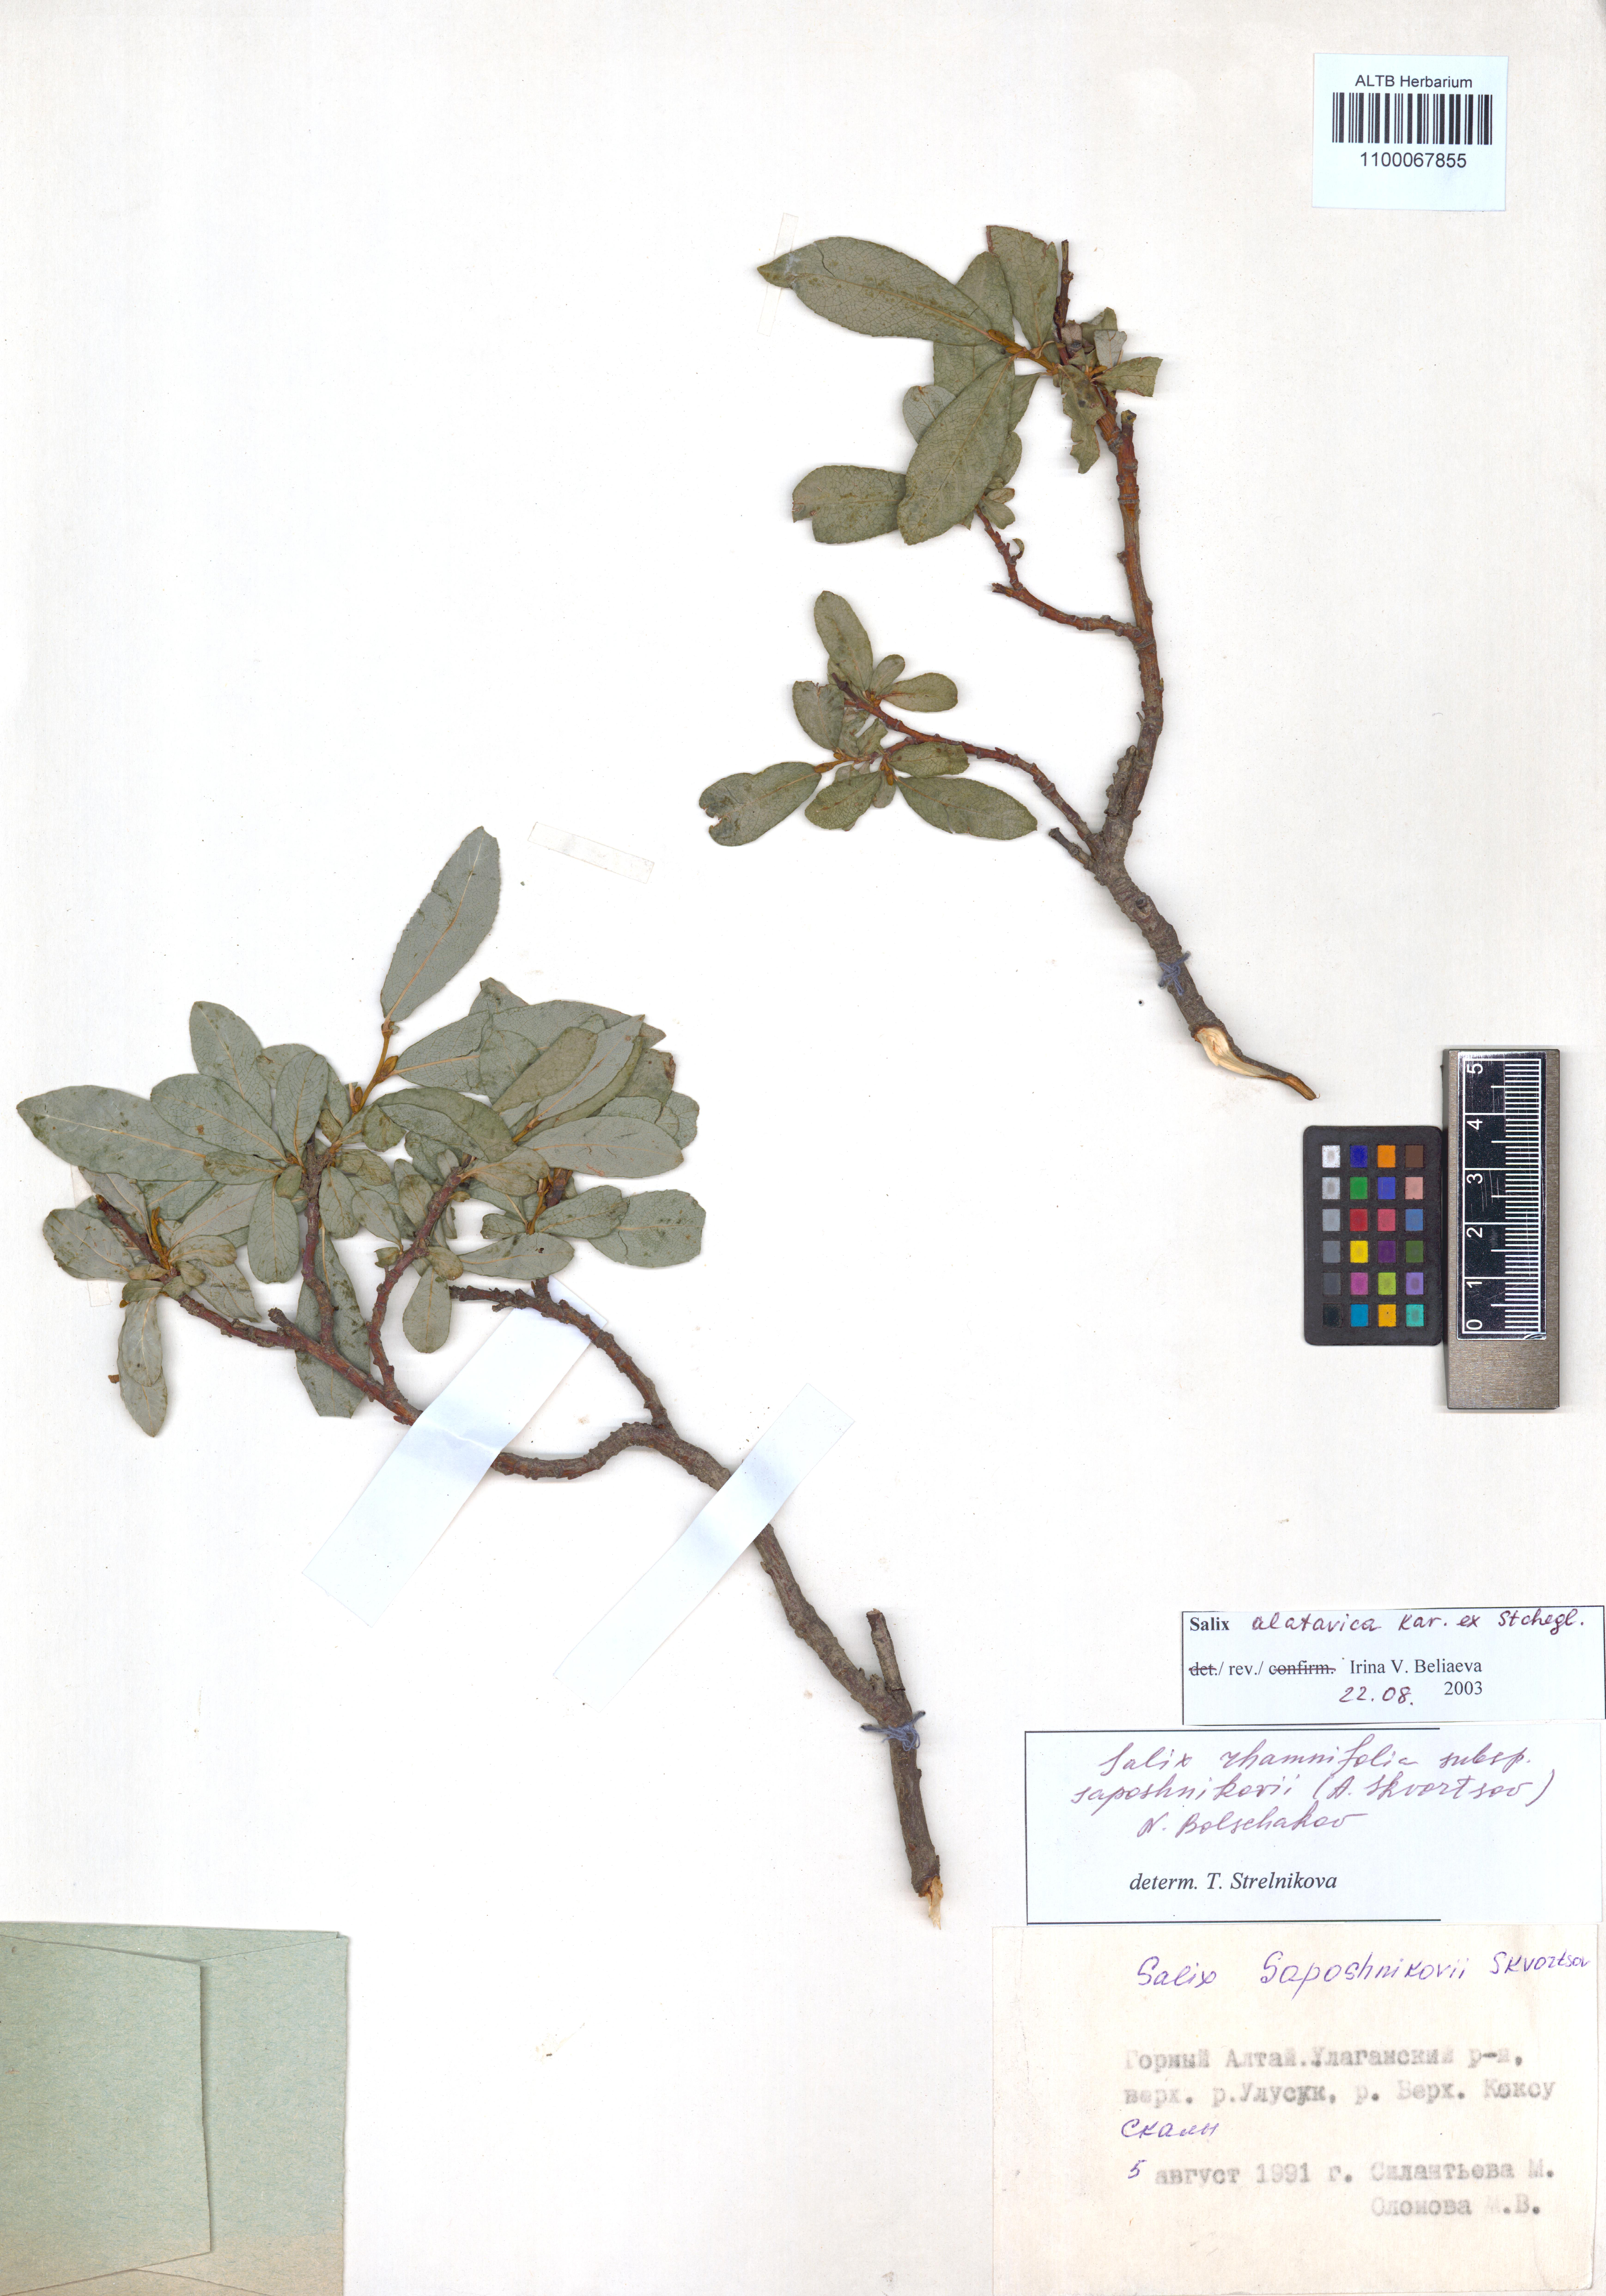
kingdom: Plantae
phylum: Tracheophyta
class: Magnoliopsida
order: Malpighiales
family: Salicaceae
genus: Salix
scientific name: Salix alatavica
